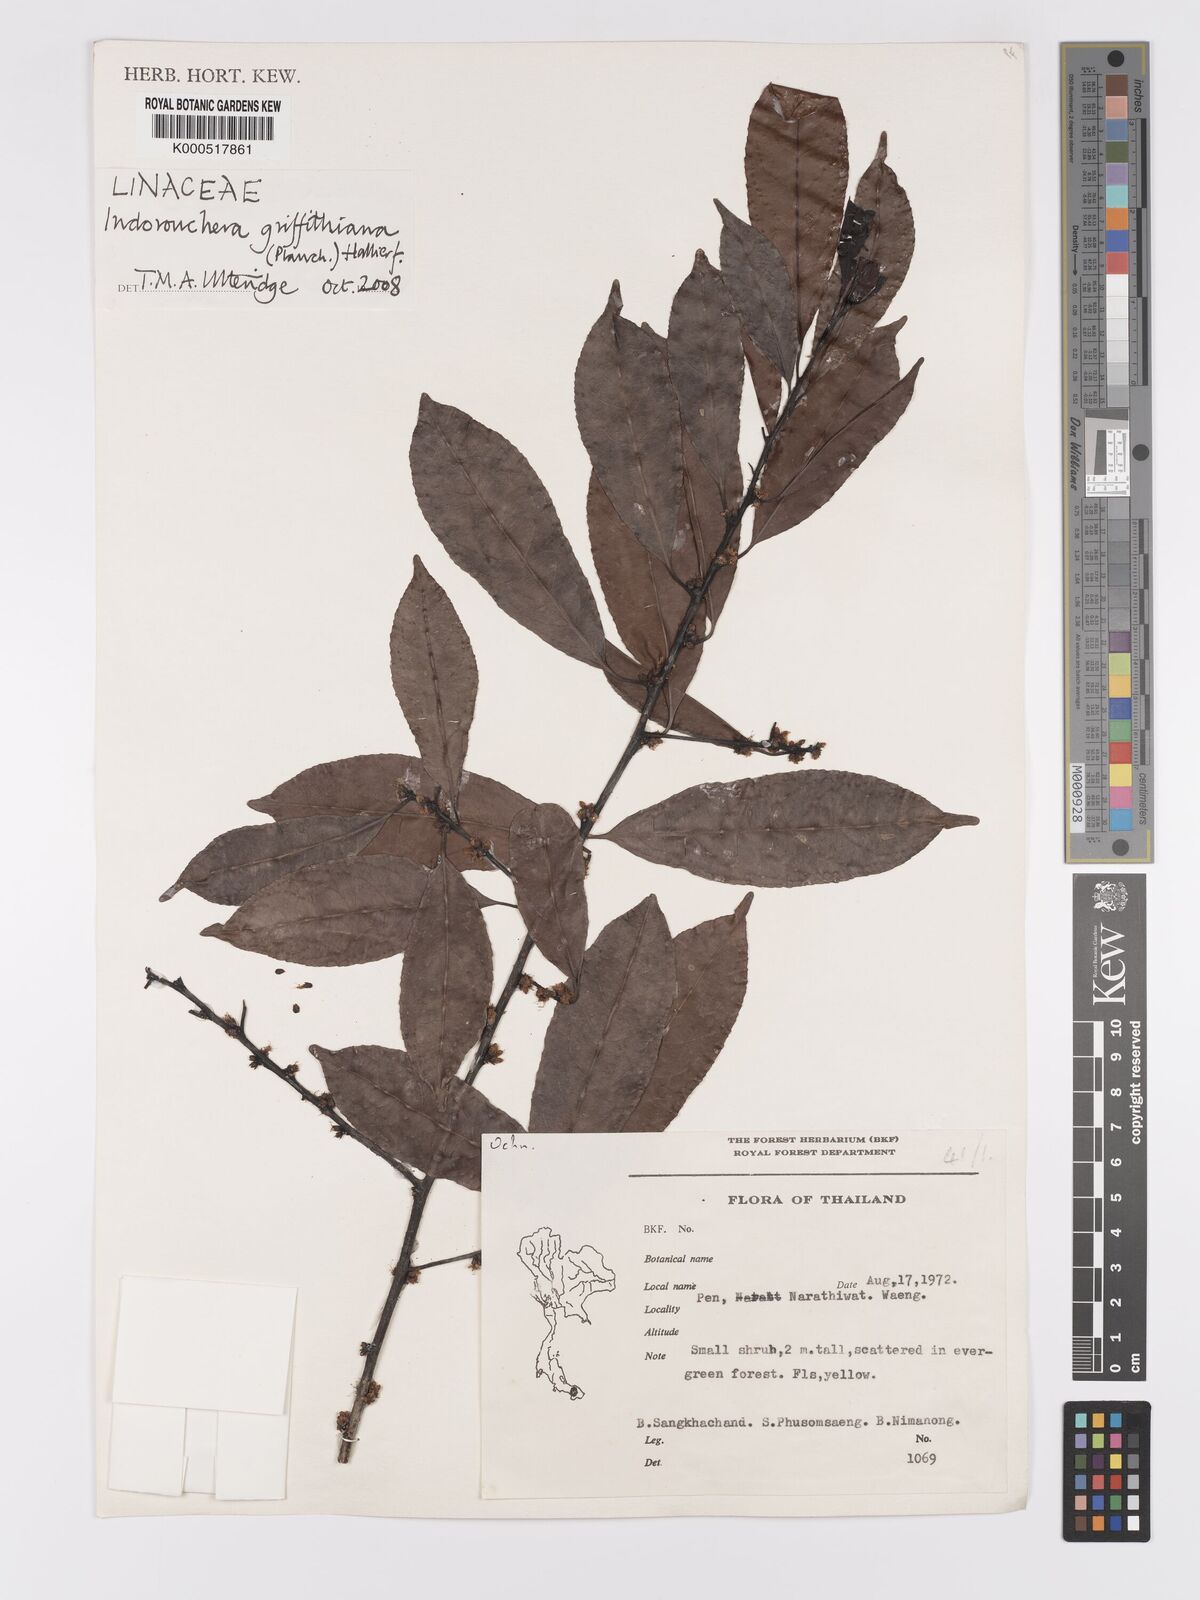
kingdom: Plantae
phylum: Tracheophyta
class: Magnoliopsida
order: Malpighiales
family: Linaceae
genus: Indorouchera
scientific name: Indorouchera griffithiana
